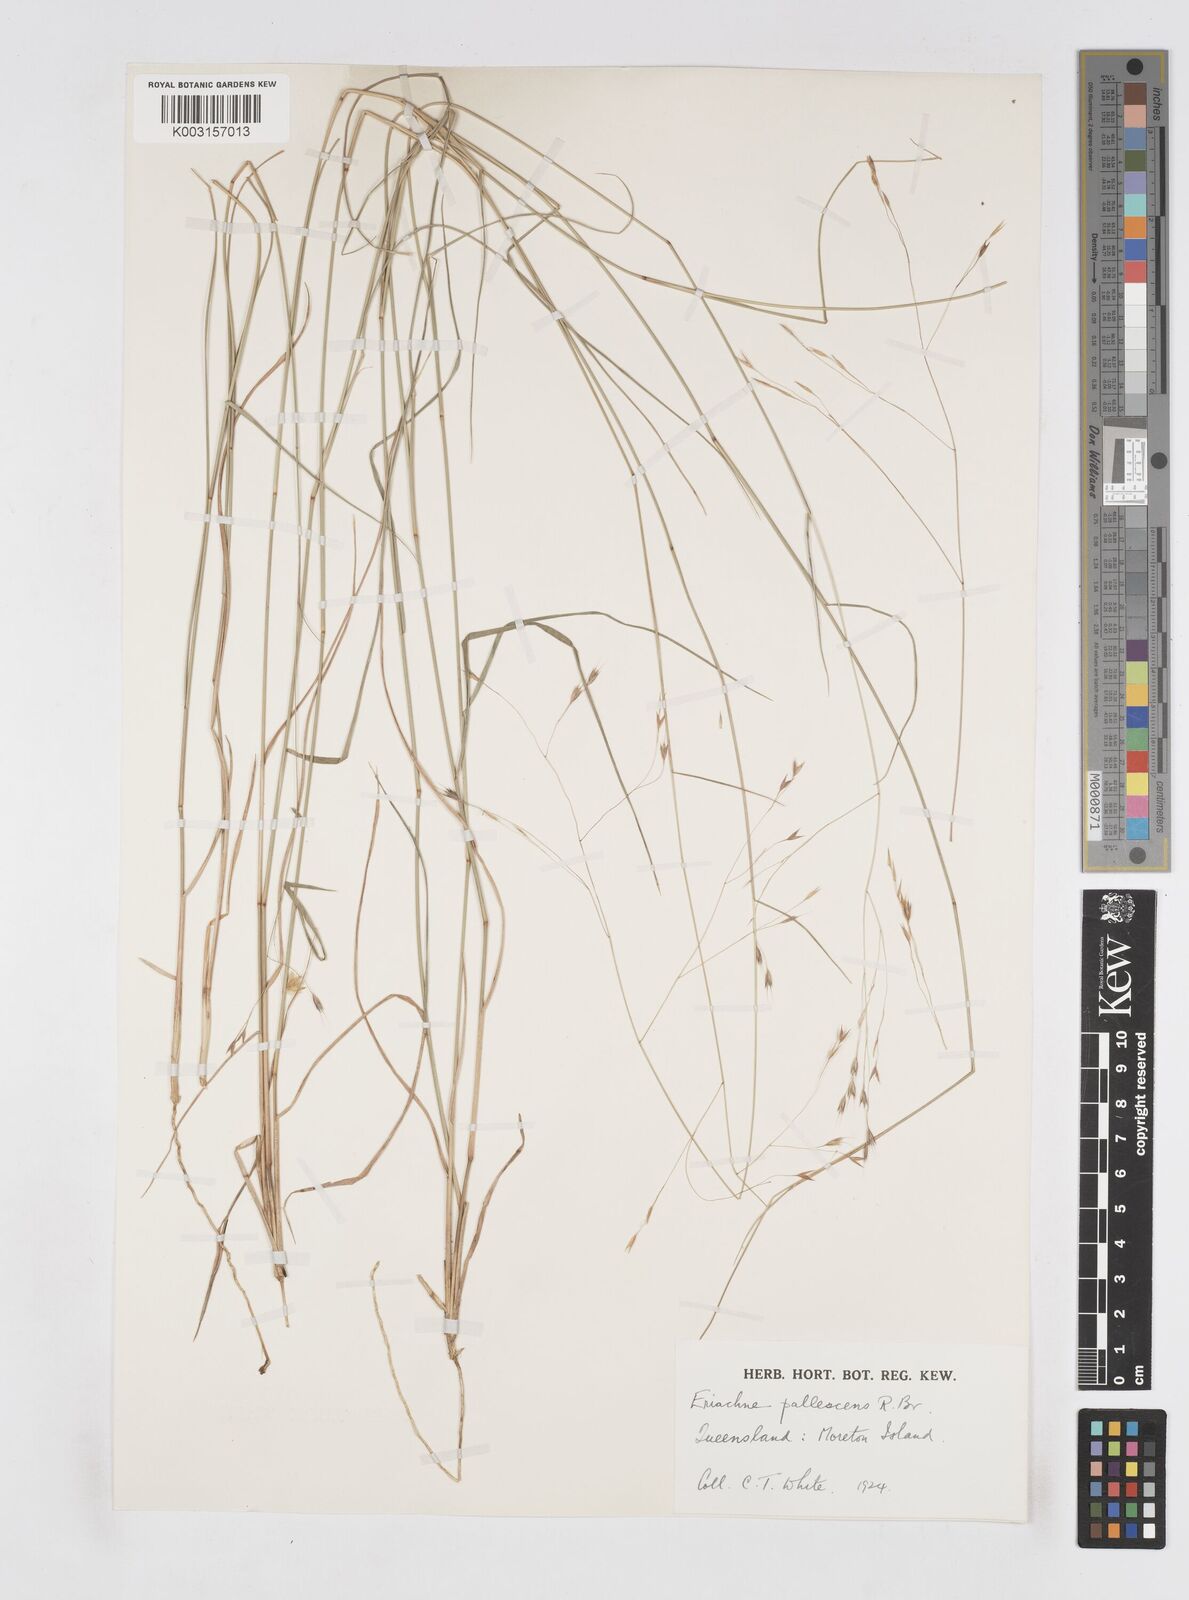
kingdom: Plantae
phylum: Tracheophyta
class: Liliopsida
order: Poales
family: Poaceae
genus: Eriachne
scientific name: Eriachne pallescens
